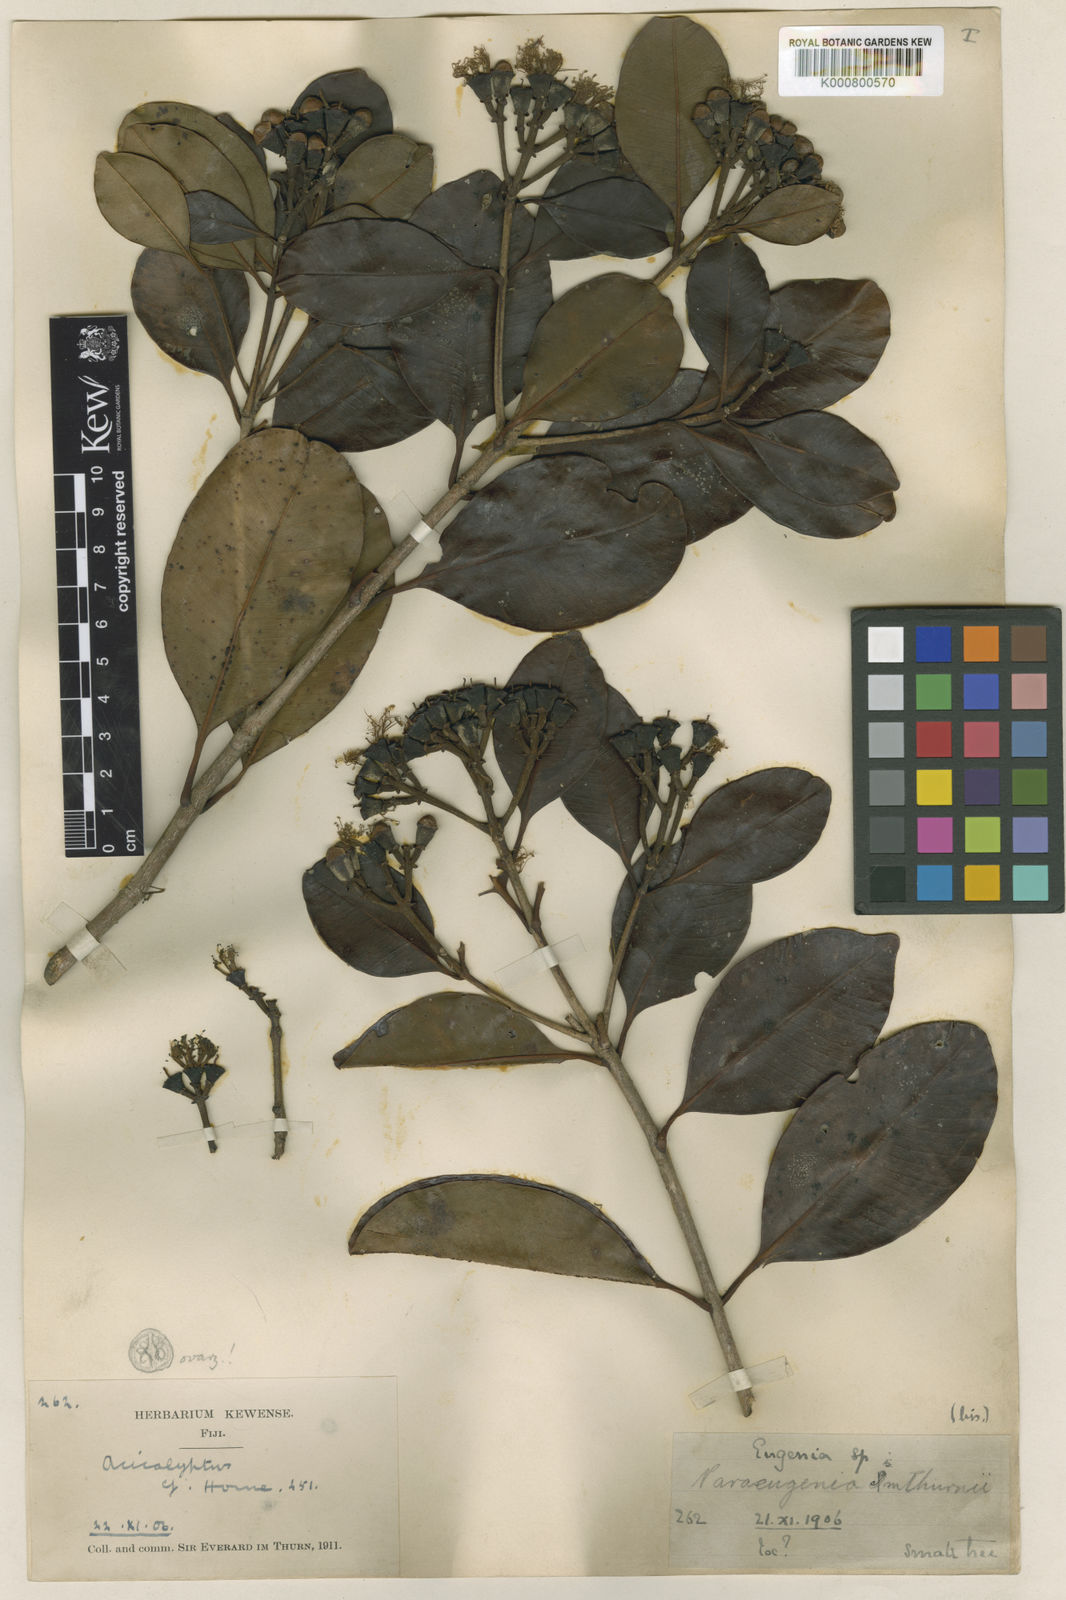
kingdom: Plantae
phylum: Tracheophyta
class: Magnoliopsida
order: Myrtales
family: Myrtaceae
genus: Syzygium
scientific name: Syzygium brackenridgei
